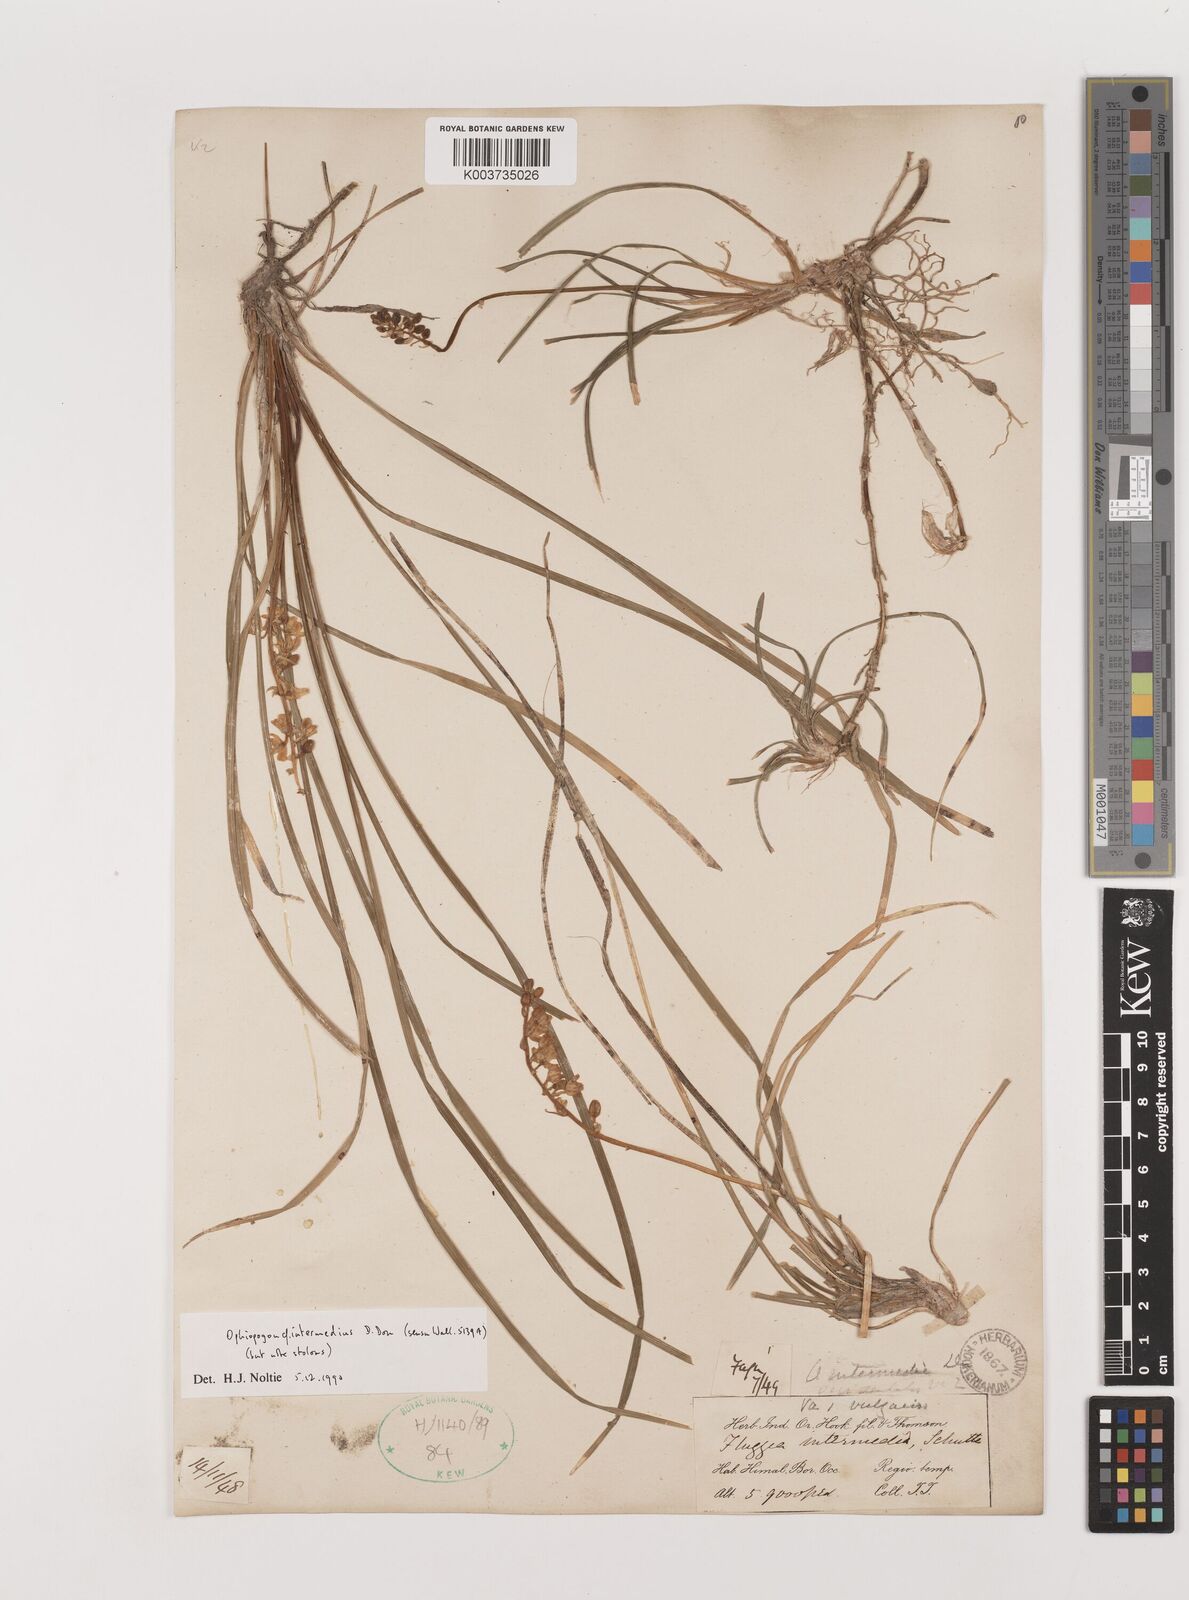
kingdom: Plantae
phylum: Tracheophyta
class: Liliopsida
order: Asparagales
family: Asparagaceae
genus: Ophiopogon
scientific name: Ophiopogon intermedius
